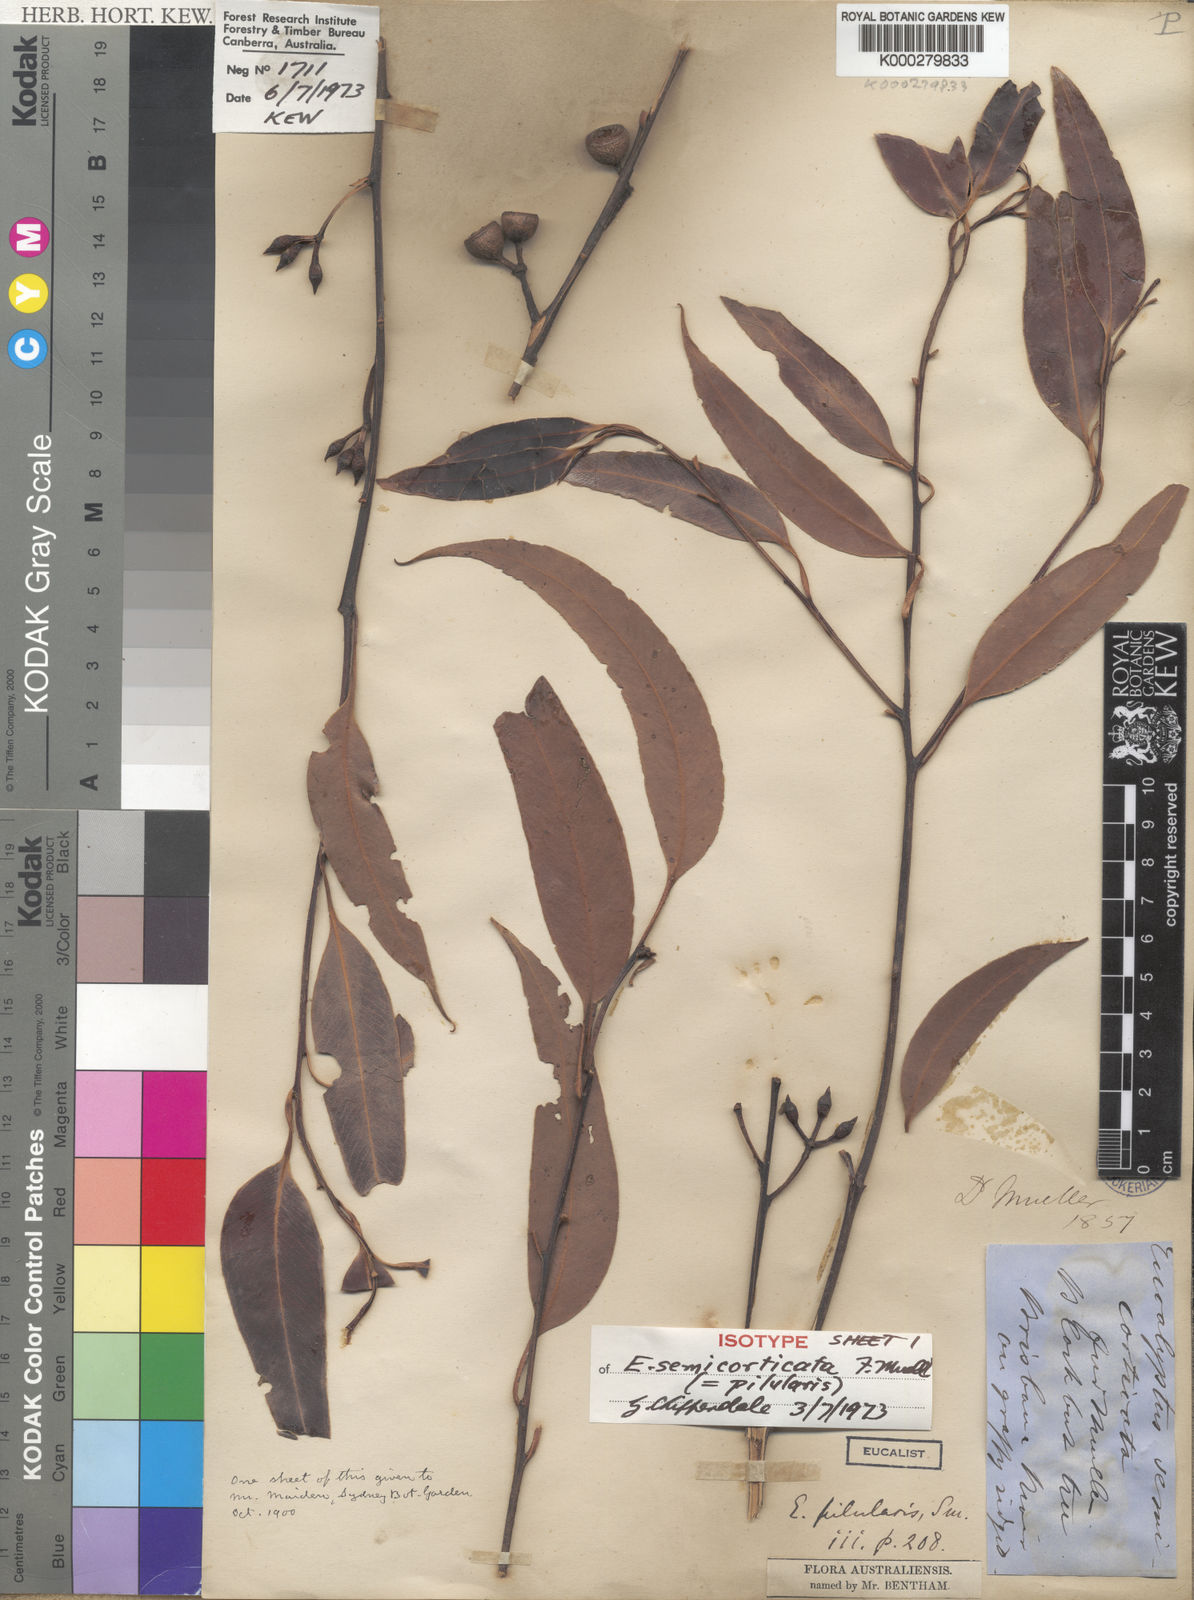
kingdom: Plantae
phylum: Tracheophyta
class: Magnoliopsida
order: Myrtales
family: Myrtaceae
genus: Eucalyptus
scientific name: Eucalyptus pilularis
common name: Blackbutt
